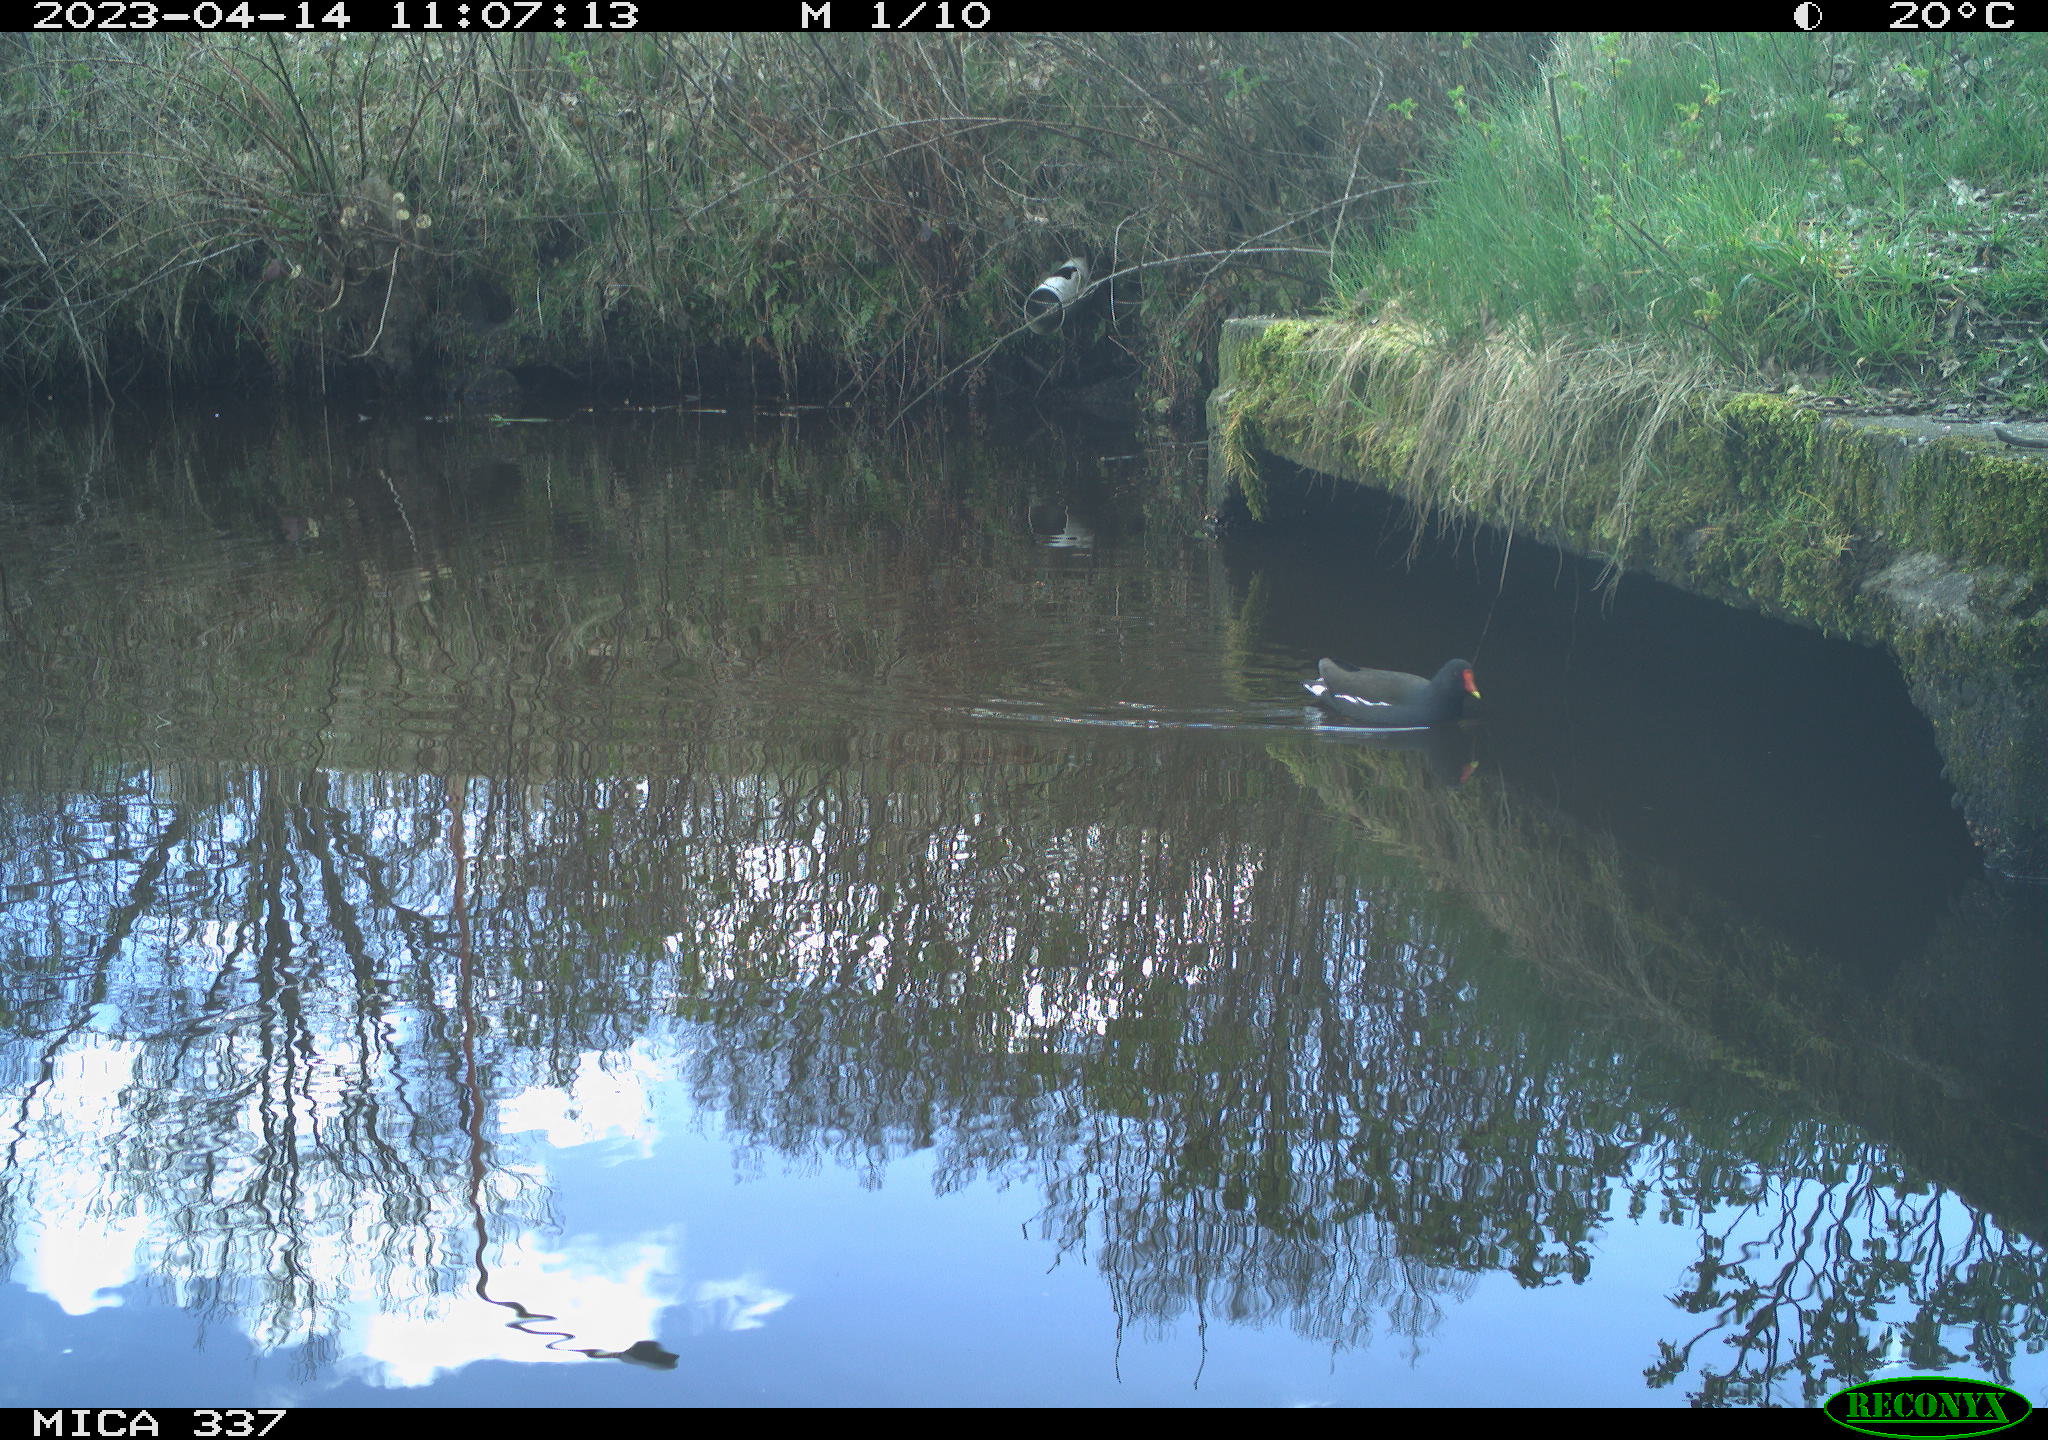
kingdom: Animalia
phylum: Chordata
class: Aves
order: Gruiformes
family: Rallidae
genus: Gallinula
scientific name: Gallinula chloropus
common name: Common moorhen
